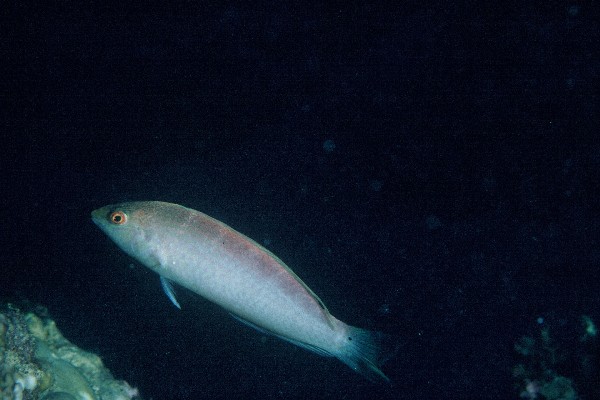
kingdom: Animalia
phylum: Chordata
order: Perciformes
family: Labridae
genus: Suezichthys
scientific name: Suezichthys caudavittatus
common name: Spottail wrasse
